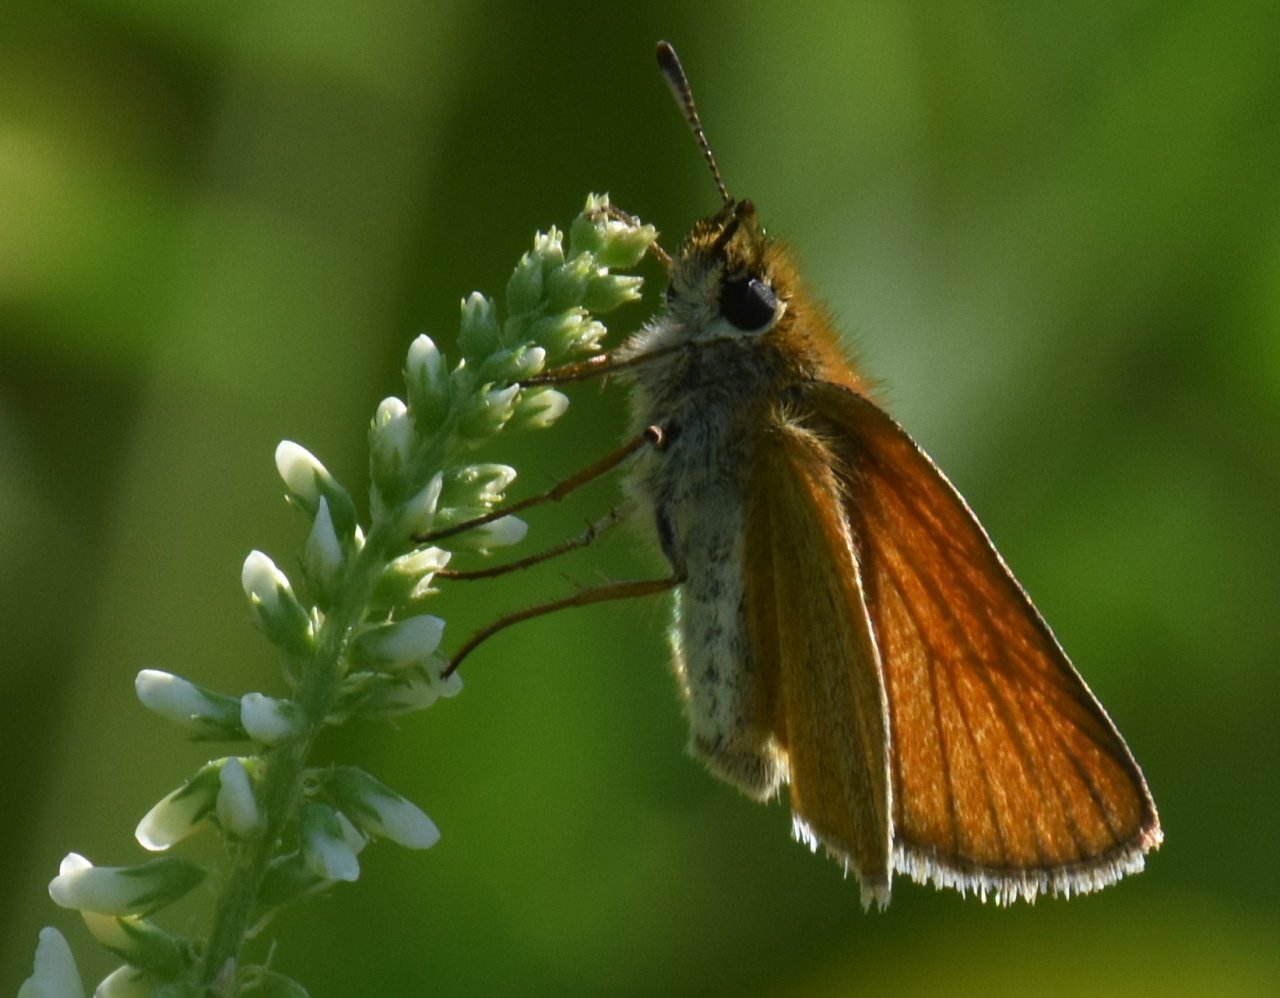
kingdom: Animalia
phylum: Arthropoda
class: Insecta
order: Lepidoptera
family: Hesperiidae
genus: Thymelicus
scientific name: Thymelicus lineola
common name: European Skipper
